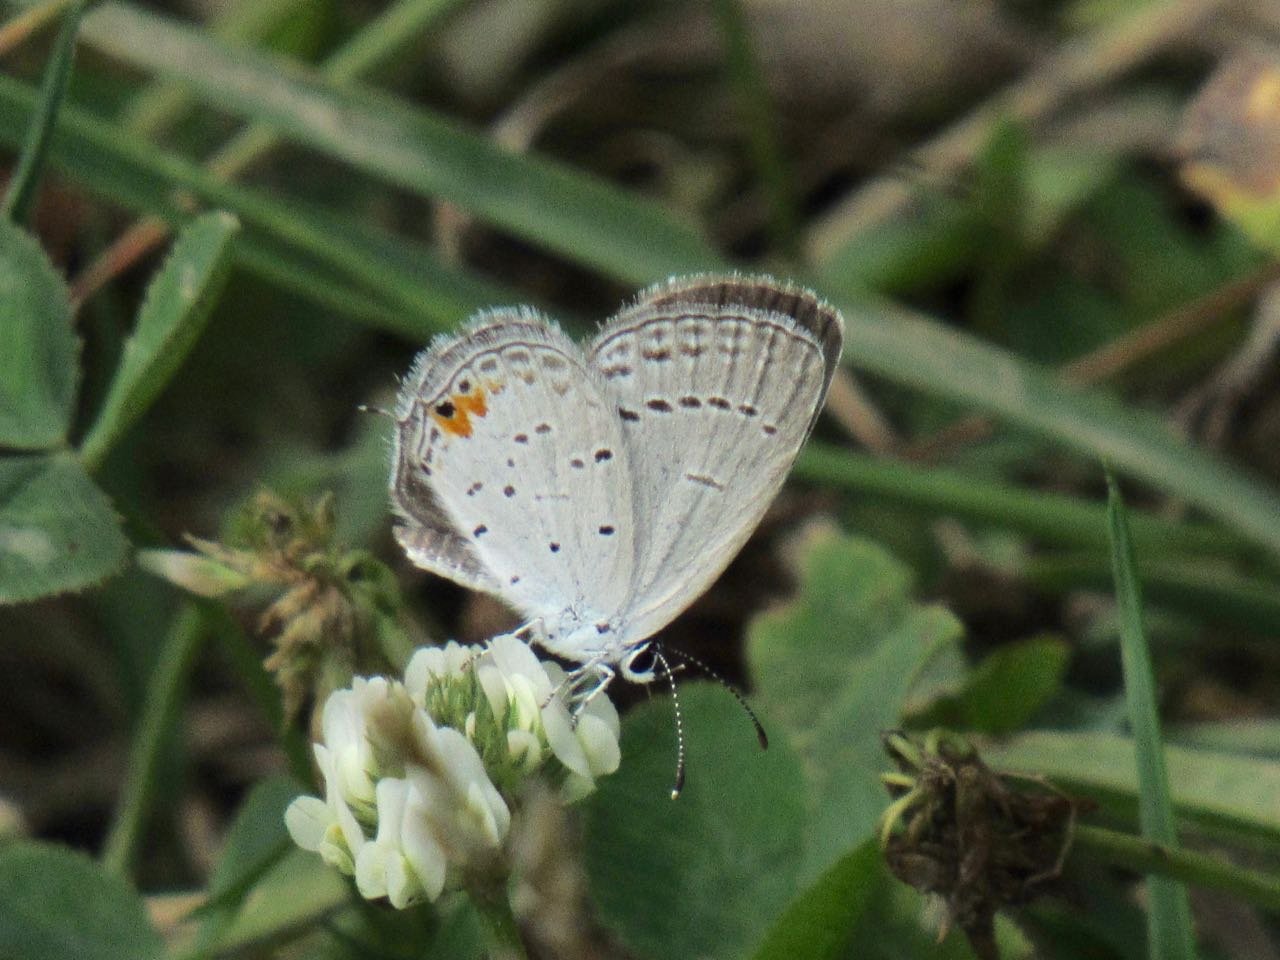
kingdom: Animalia
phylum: Arthropoda
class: Insecta
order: Lepidoptera
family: Lycaenidae
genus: Elkalyce
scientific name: Elkalyce comyntas
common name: Eastern Tailed-Blue
